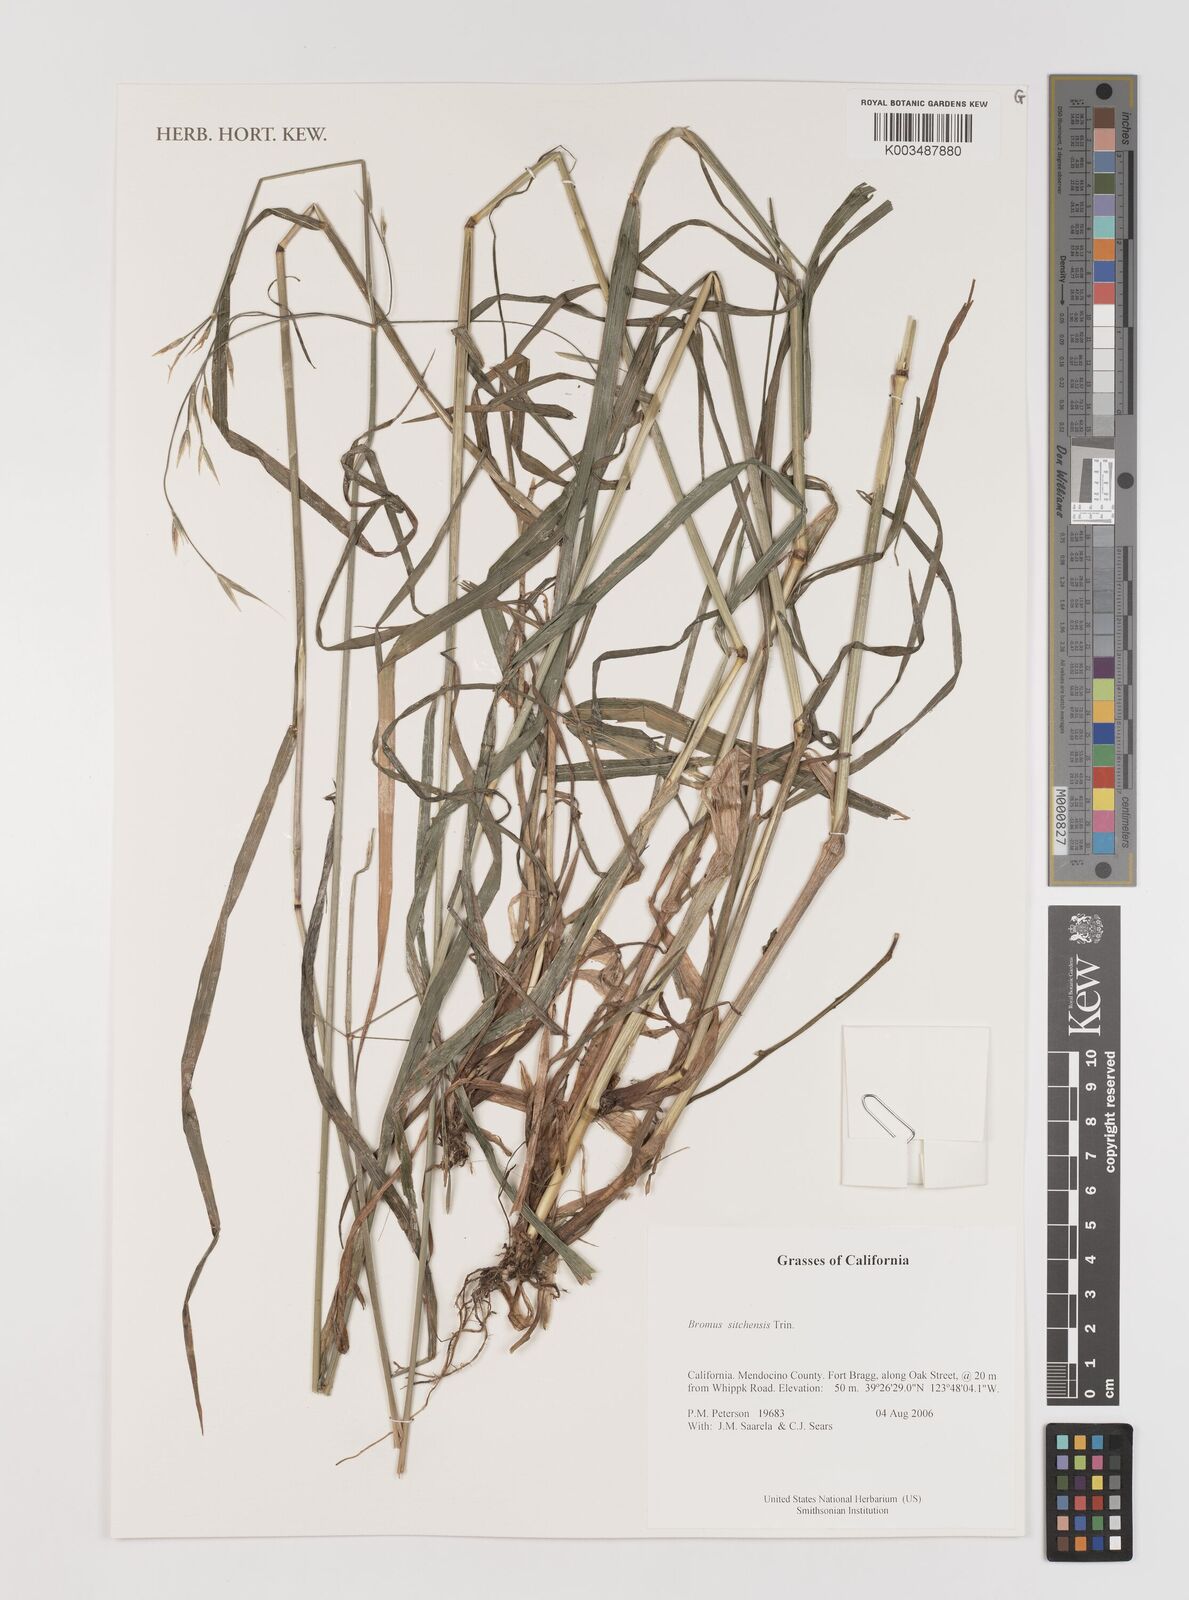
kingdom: Plantae
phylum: Tracheophyta
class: Liliopsida
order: Poales
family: Poaceae
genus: Bromus
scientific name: Bromus sitchensis
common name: Sitka brome
